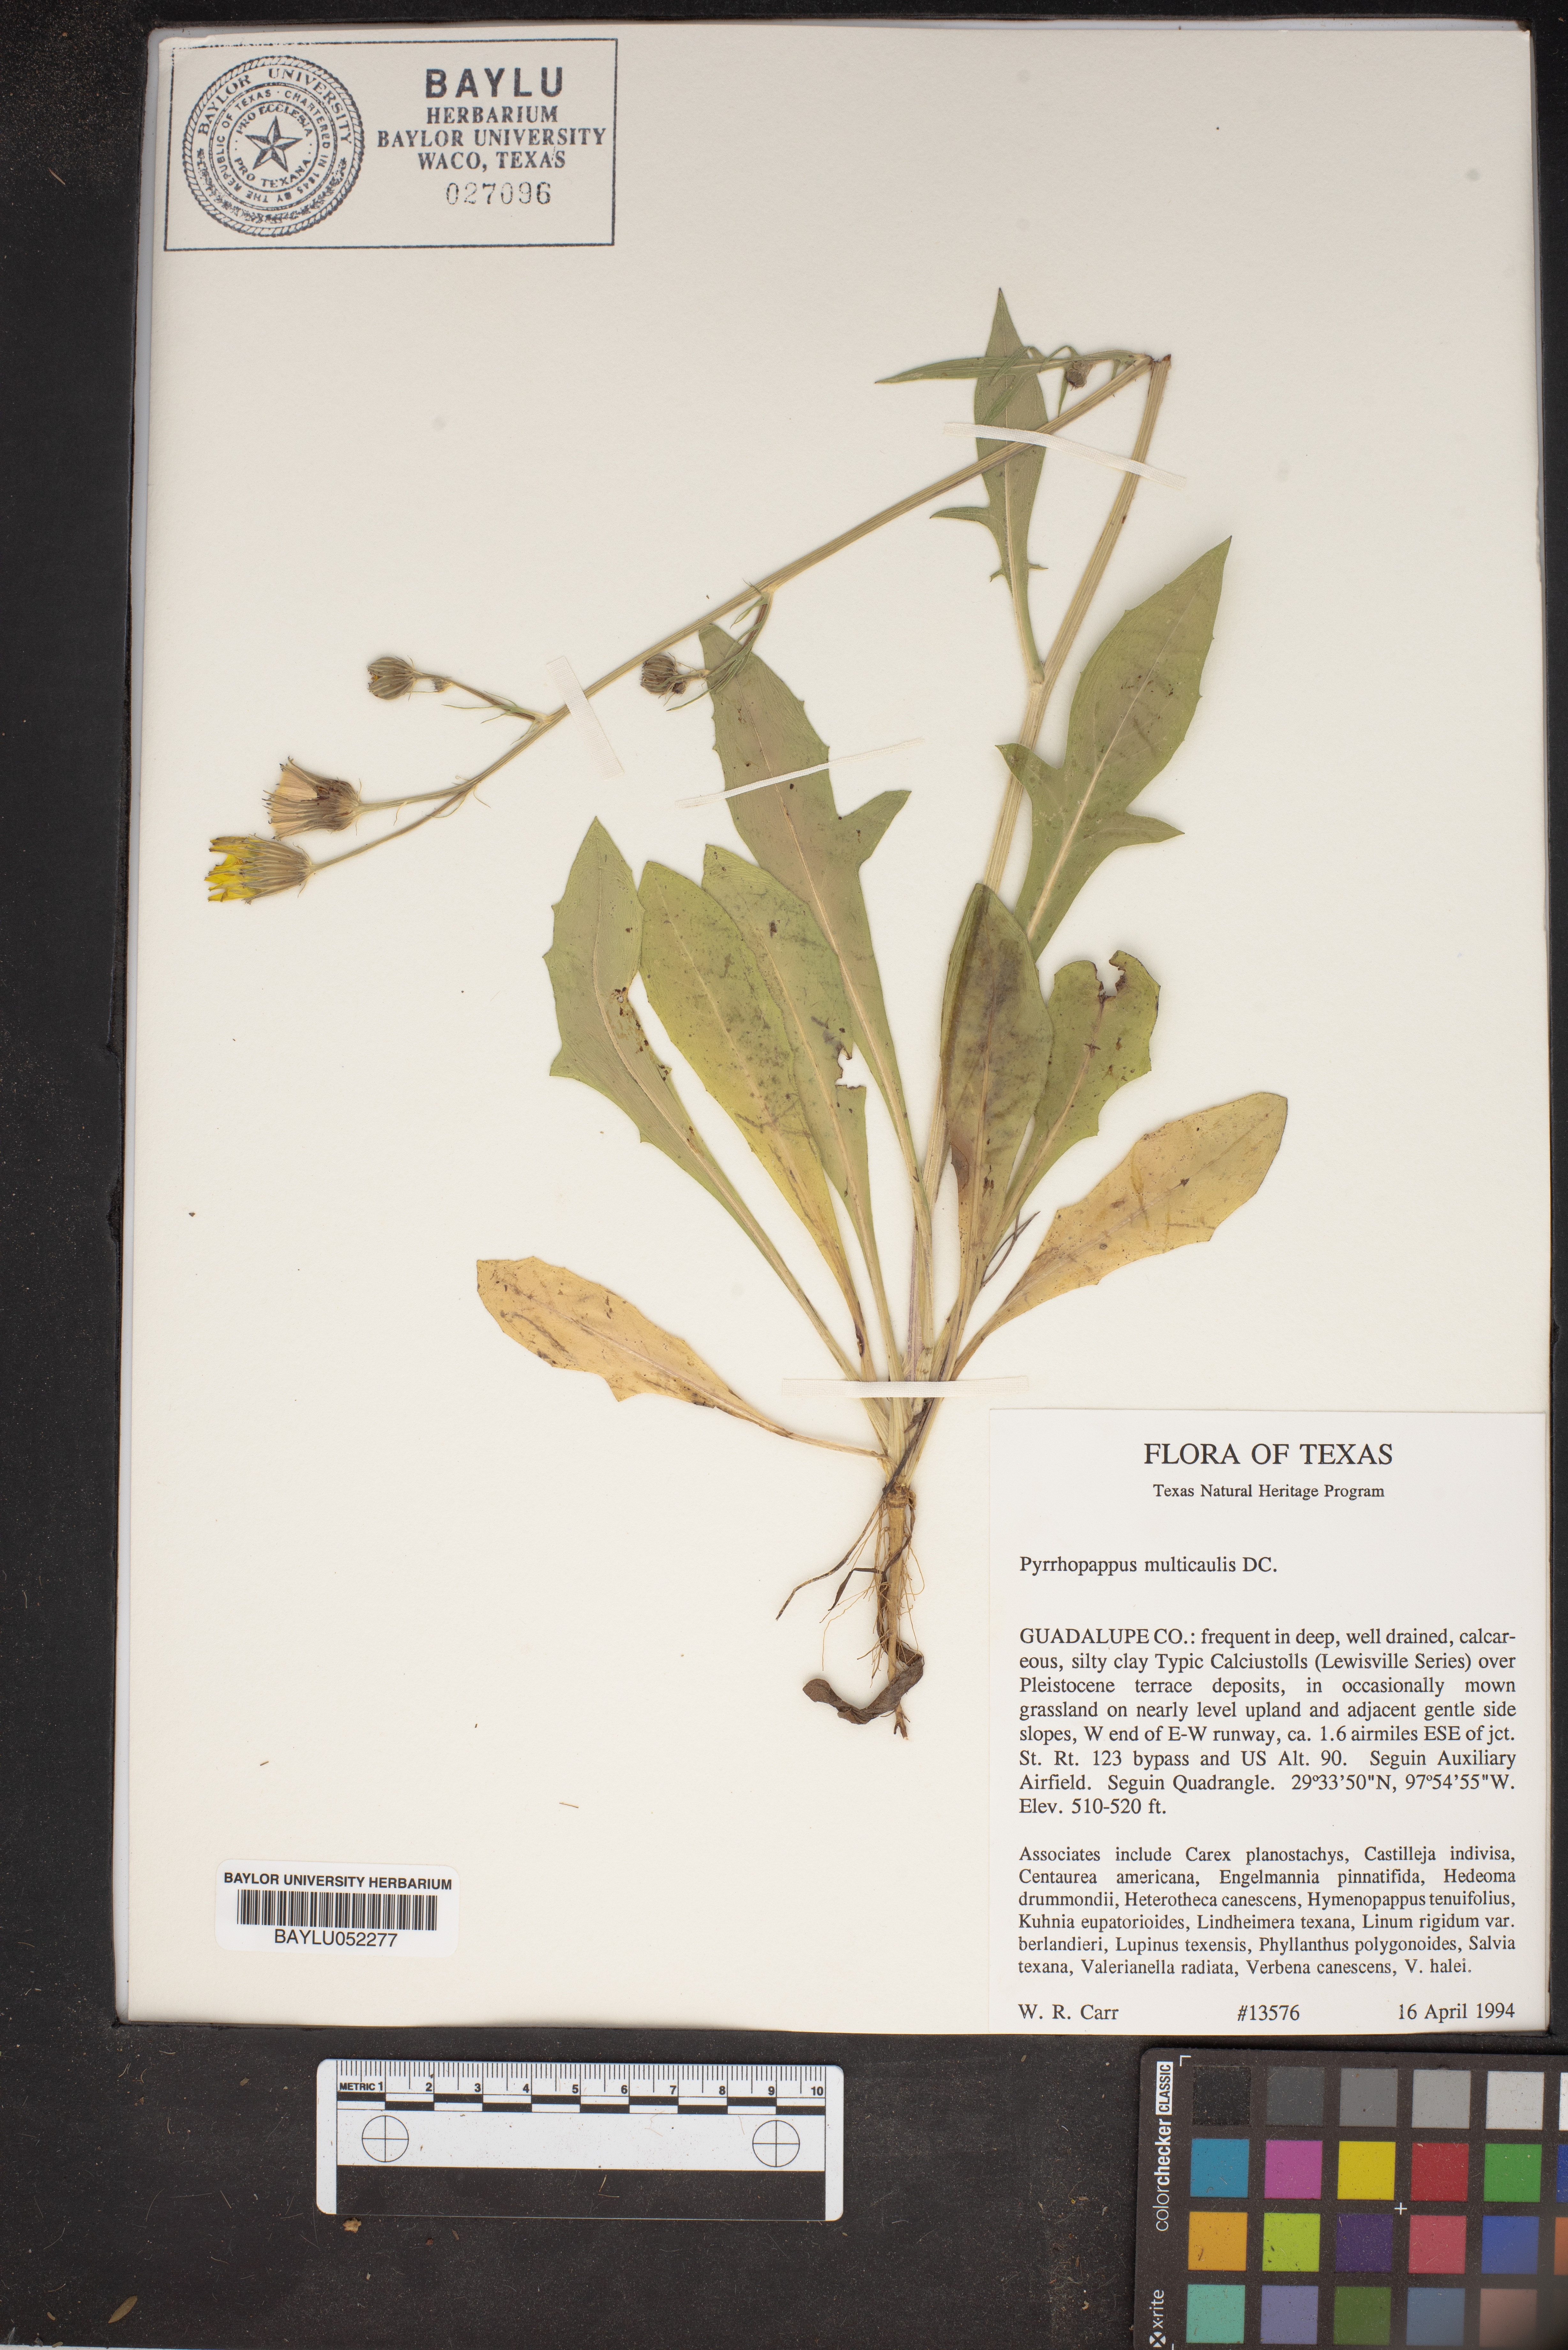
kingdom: Plantae
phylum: Tracheophyta
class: Magnoliopsida
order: Asterales
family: Asteraceae
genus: Pyrrhopappus
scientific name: Pyrrhopappus pauciflorus
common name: Texas false dandelion
